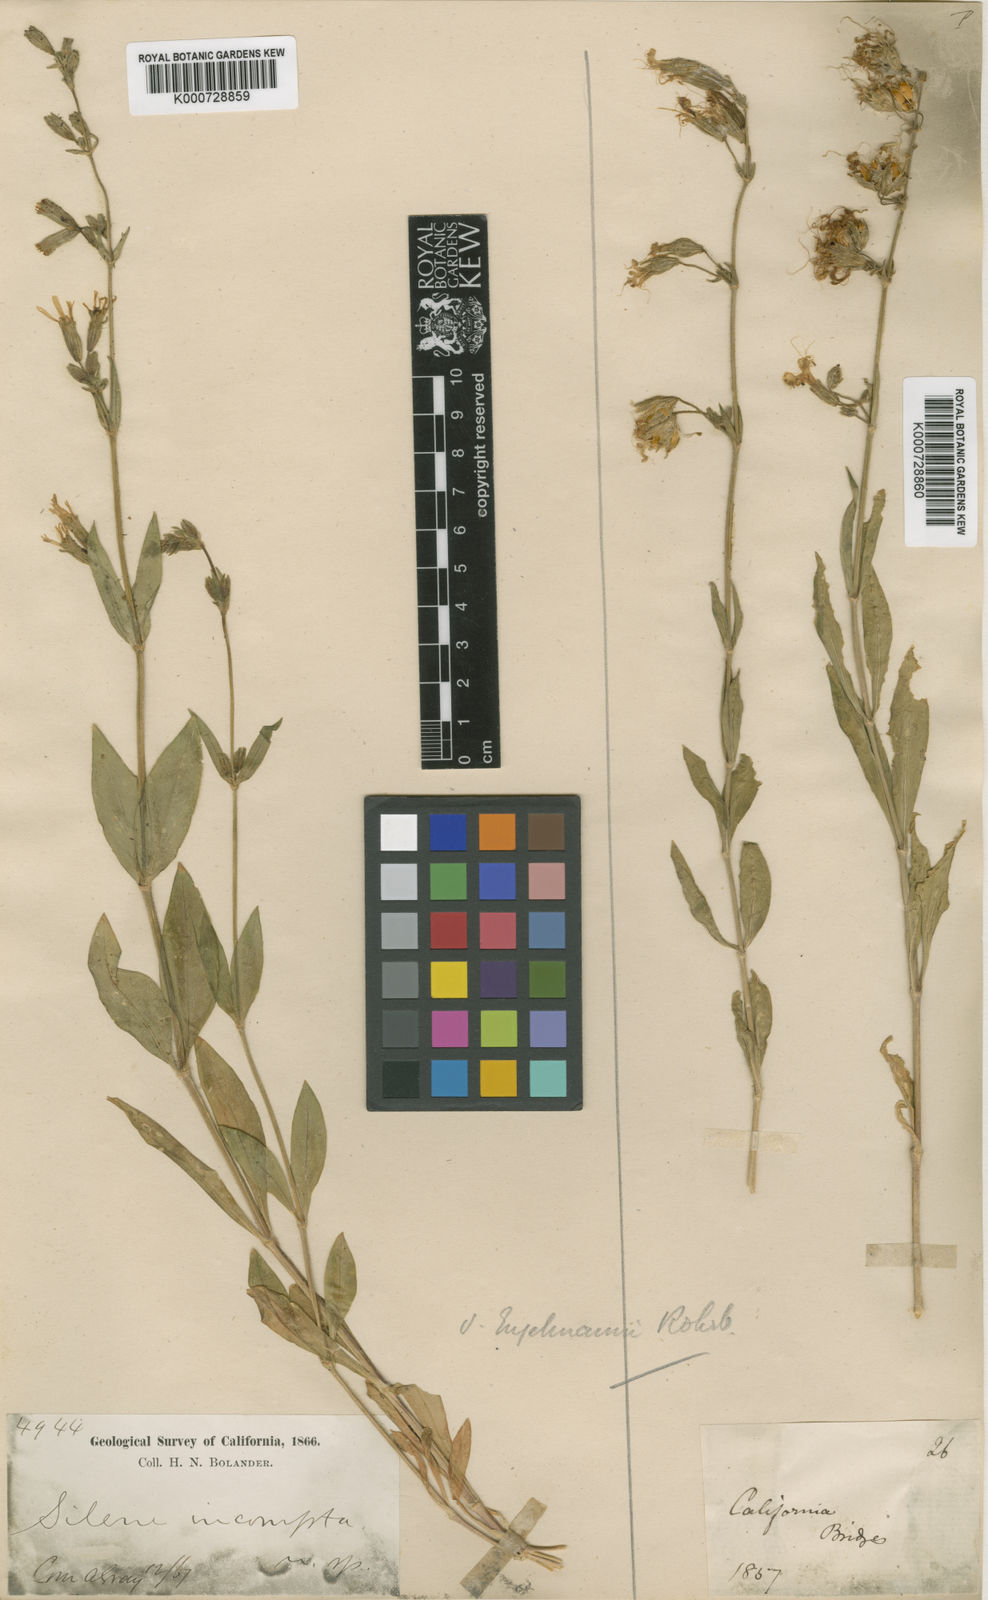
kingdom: Plantae
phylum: Tracheophyta
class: Magnoliopsida
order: Caryophyllales
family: Caryophyllaceae
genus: Silene
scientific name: Silene bridgesii
